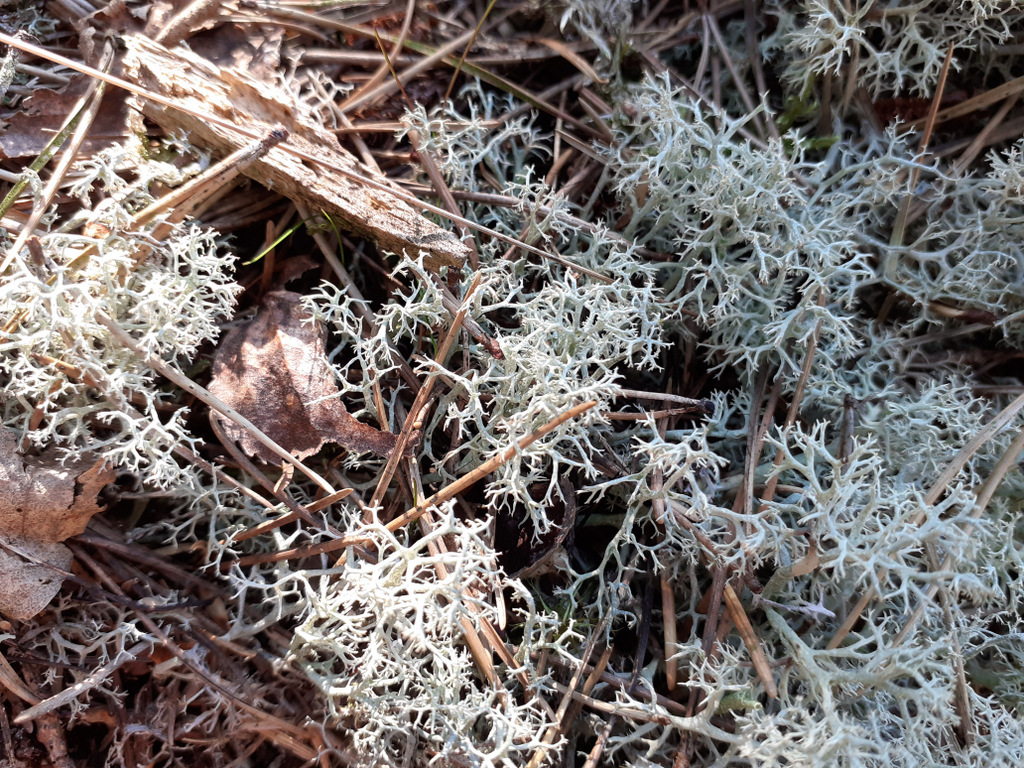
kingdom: Fungi
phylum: Ascomycota
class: Lecanoromycetes
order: Lecanorales
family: Cladoniaceae
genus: Cladonia
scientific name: Cladonia portentosa
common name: hede-rensdyrlav
